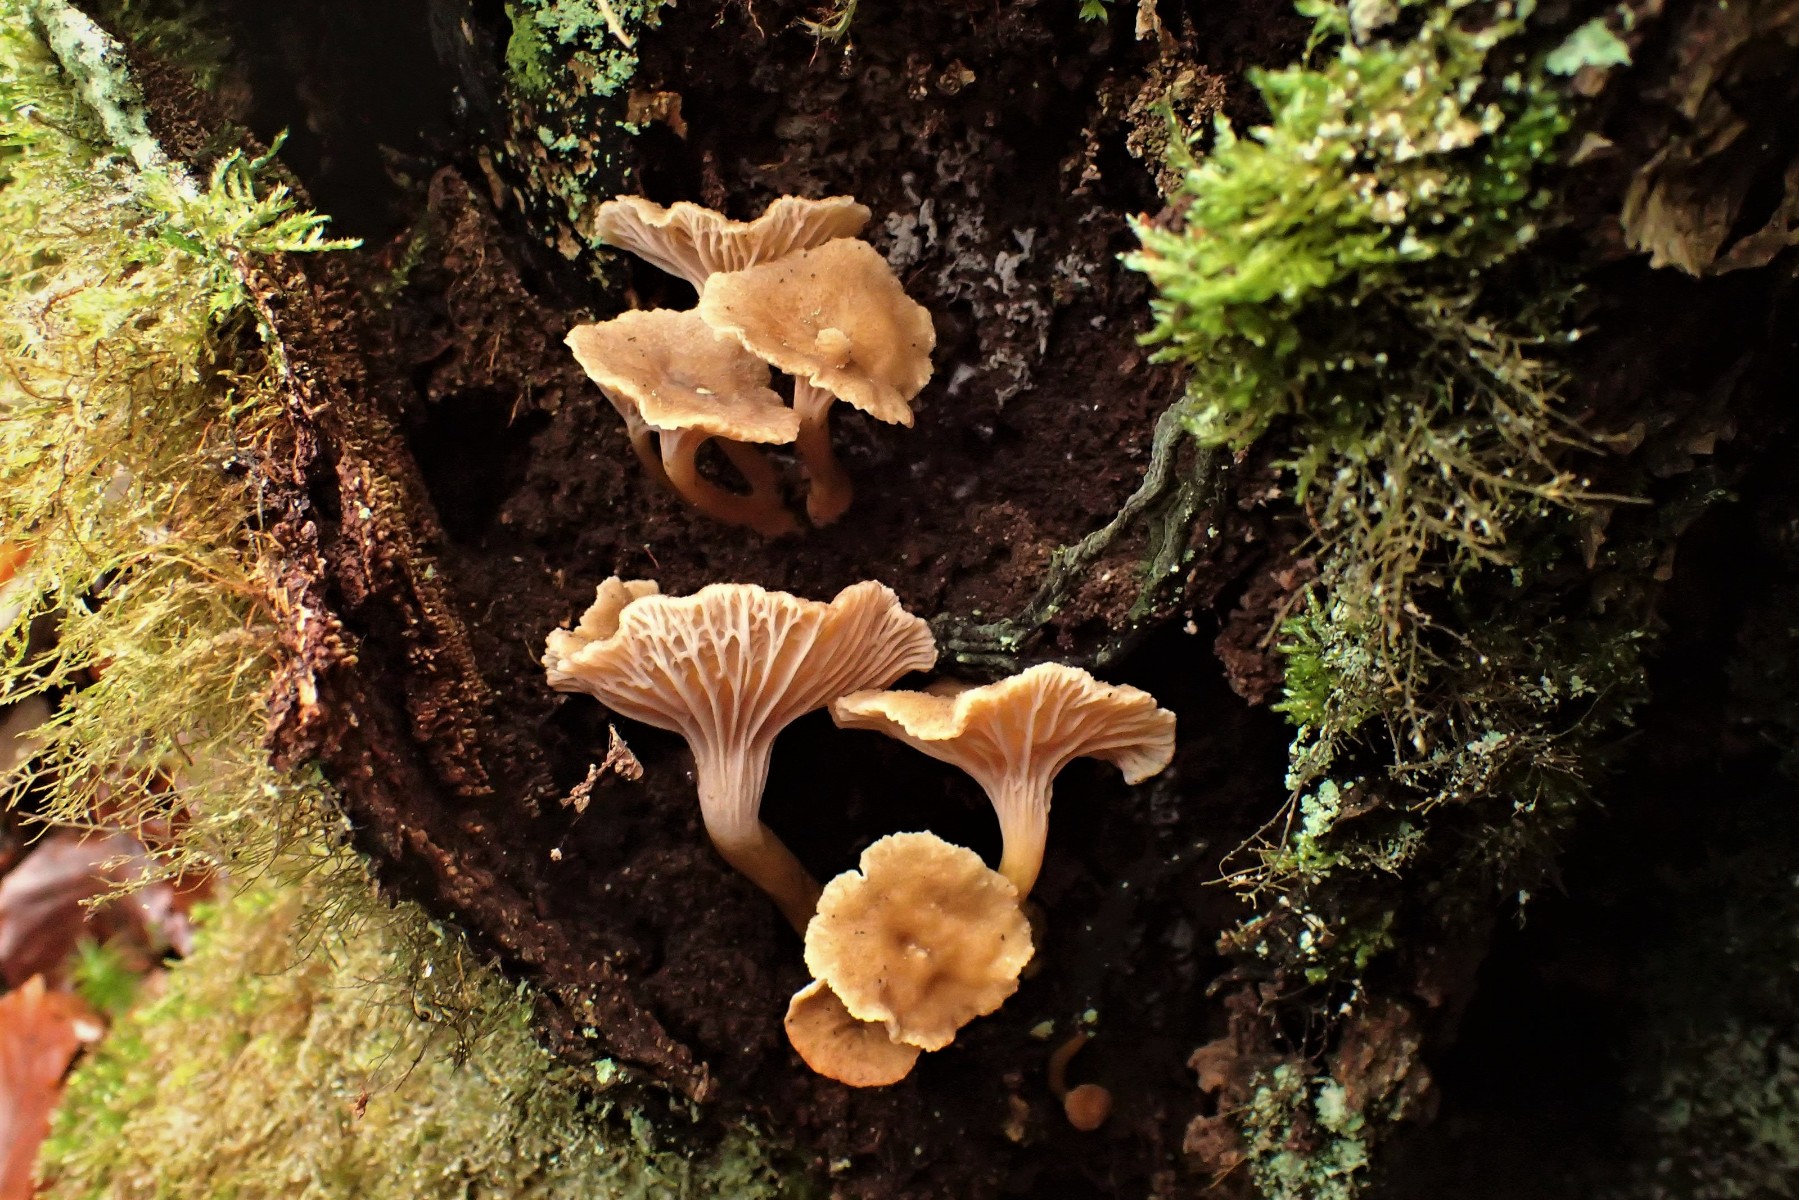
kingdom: Fungi
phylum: Basidiomycota
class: Agaricomycetes
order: Cantharellales
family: Hydnaceae
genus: Craterellus
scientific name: Craterellus tubaeformis
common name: tragt-kantarel
